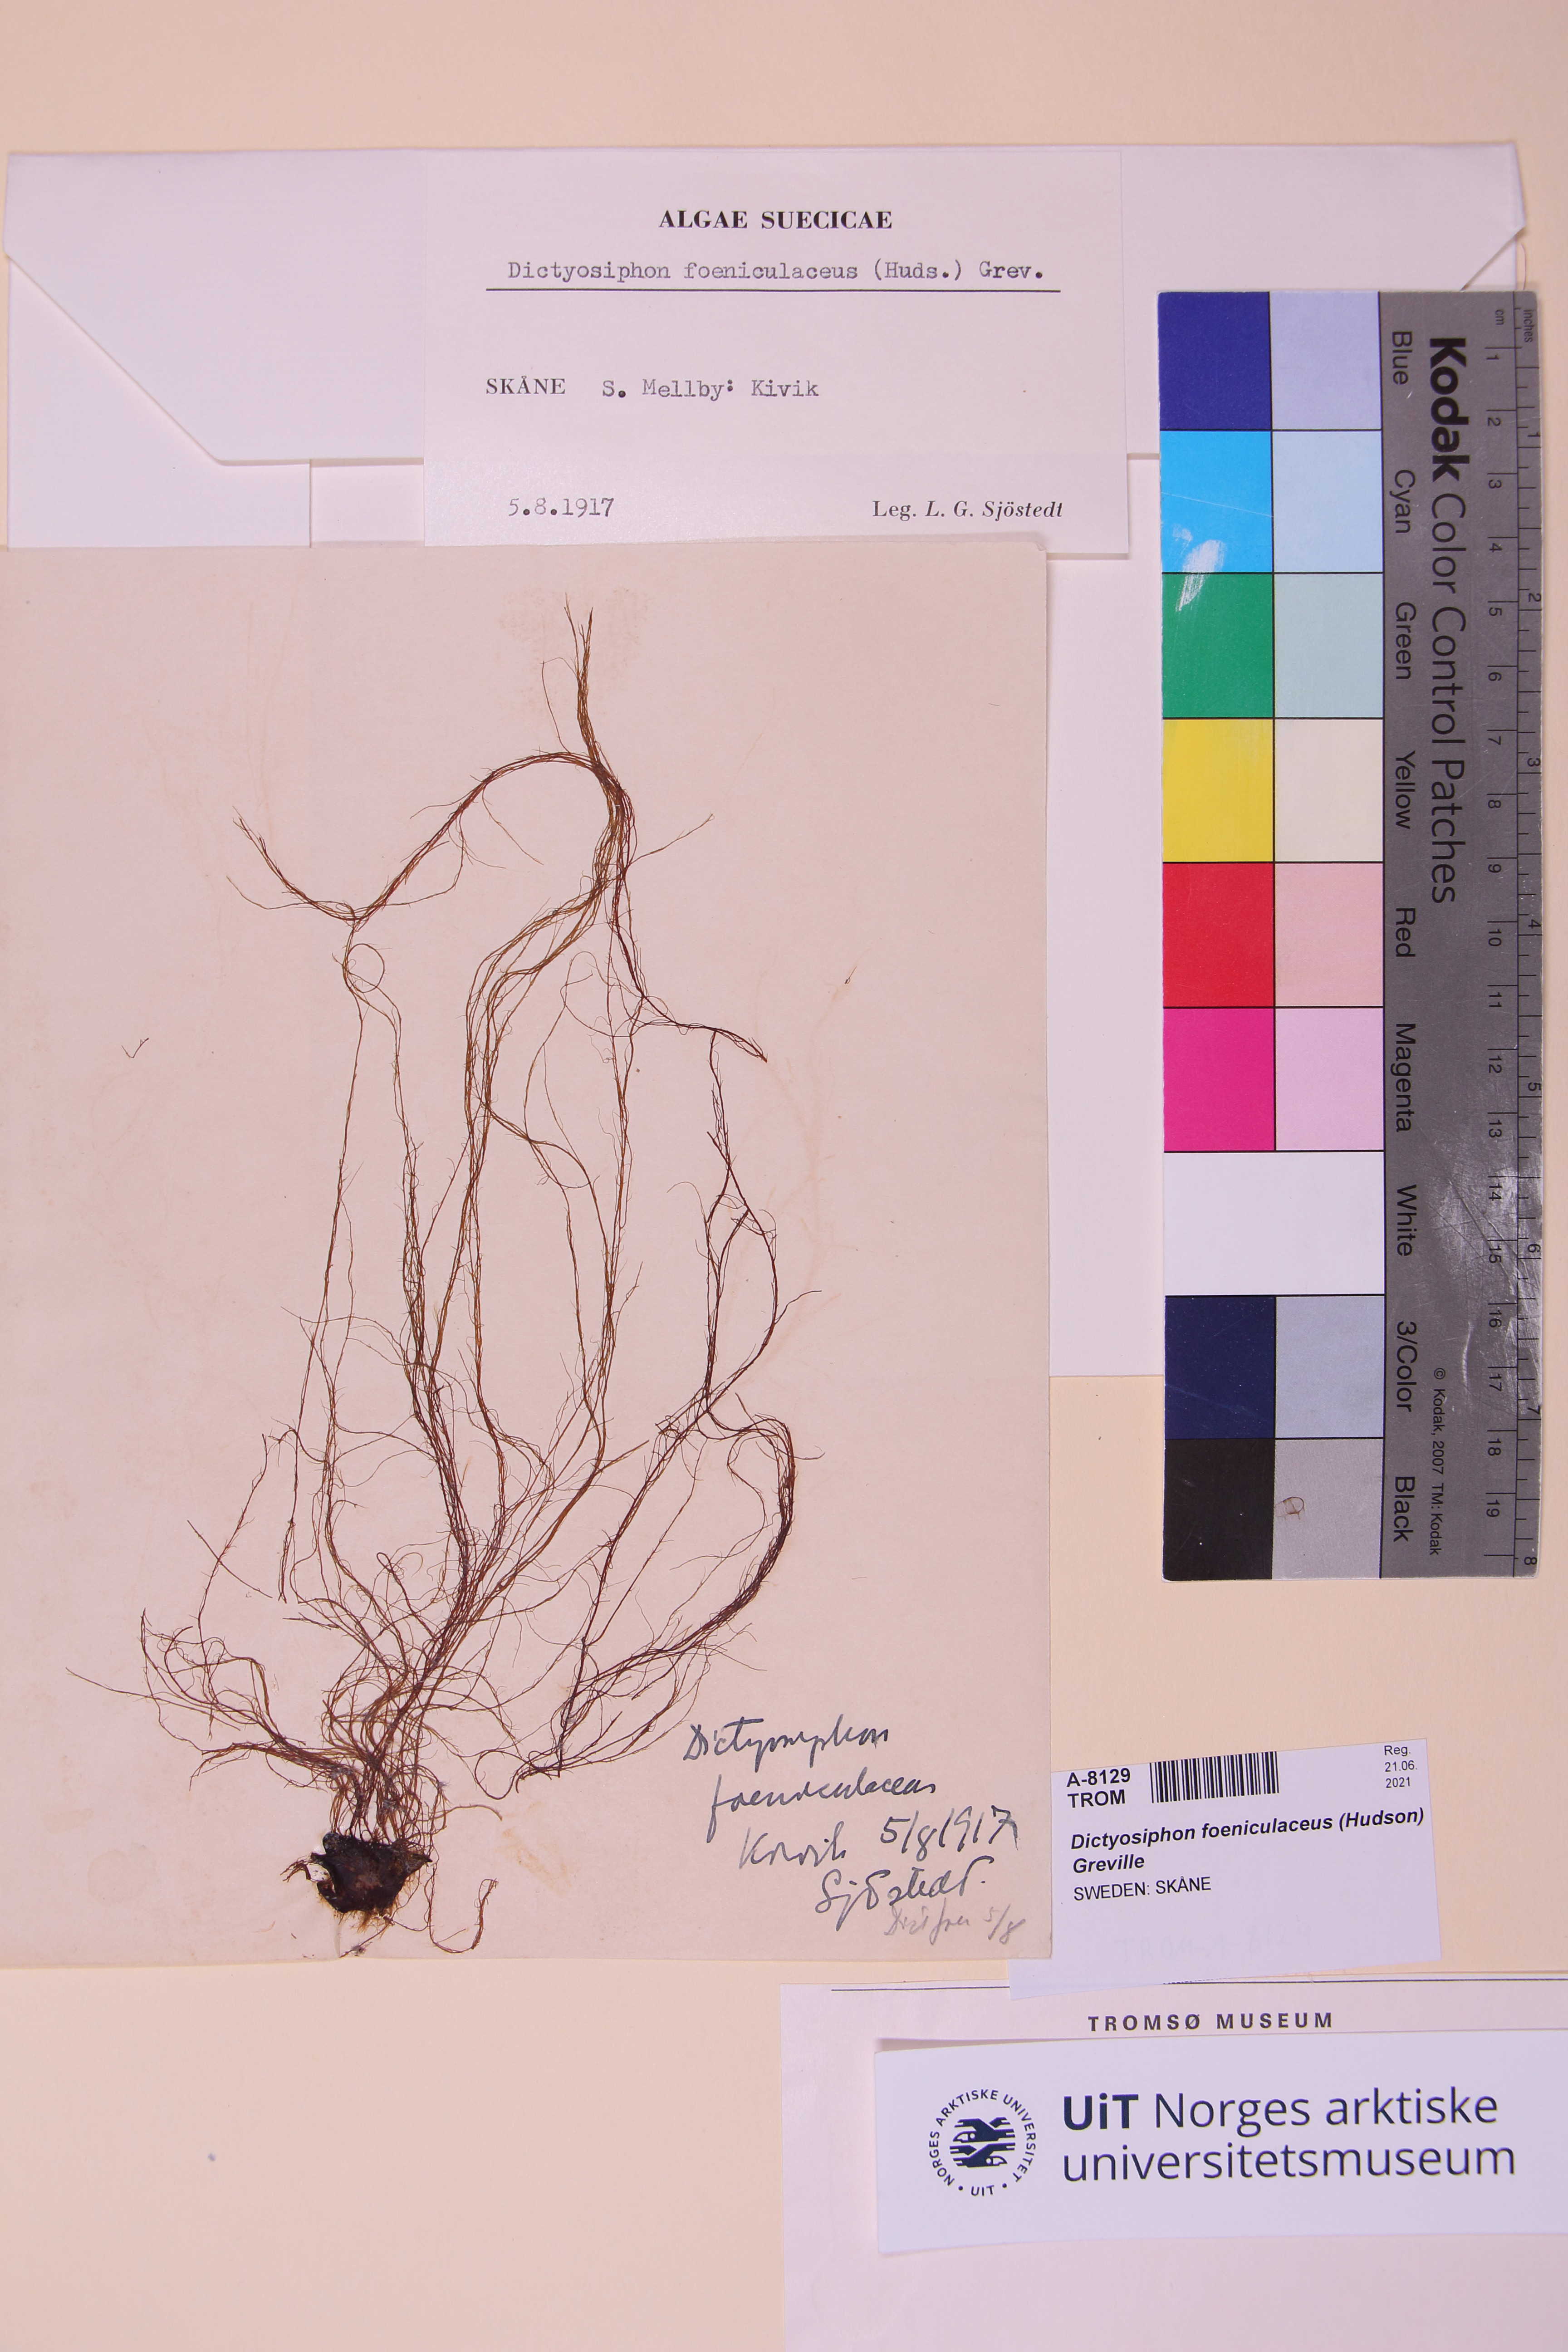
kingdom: Chromista
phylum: Ochrophyta
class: Phaeophyceae
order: Ectocarpales
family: Chordariaceae
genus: Dictyosiphon
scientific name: Dictyosiphon foeniculaceus
